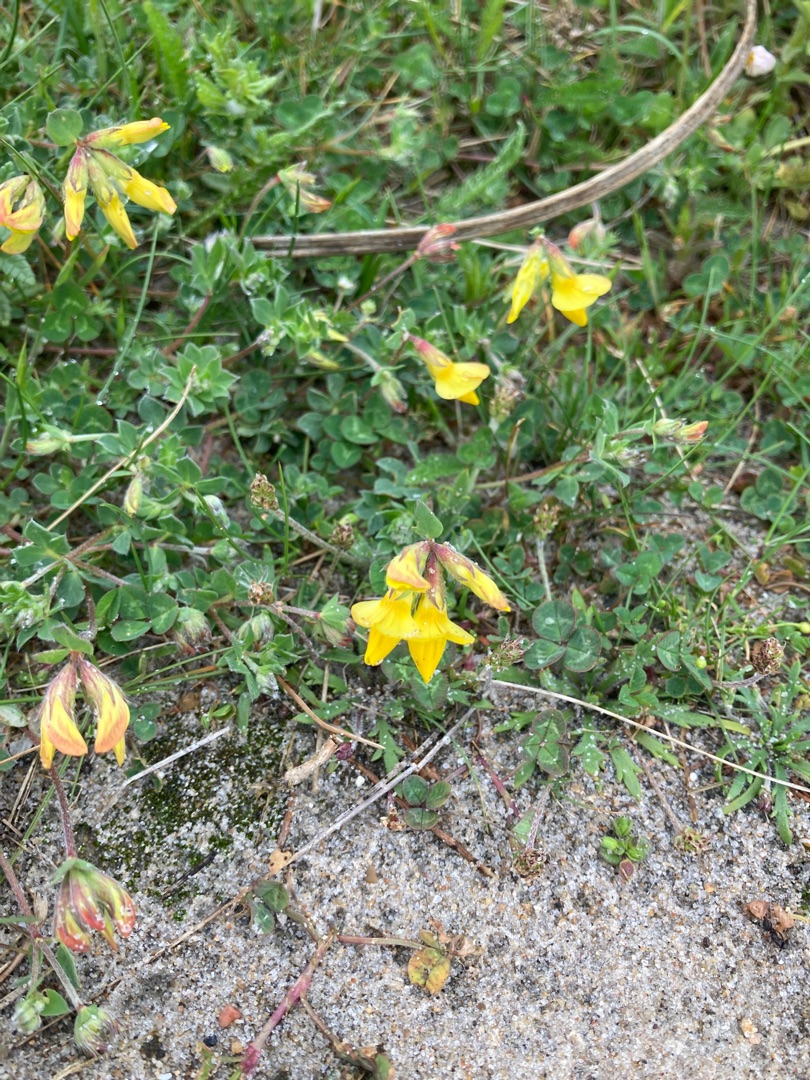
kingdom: Plantae
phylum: Tracheophyta
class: Magnoliopsida
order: Fabales
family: Fabaceae
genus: Lotus
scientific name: Lotus corniculatus
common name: Almindelig kællingetand
